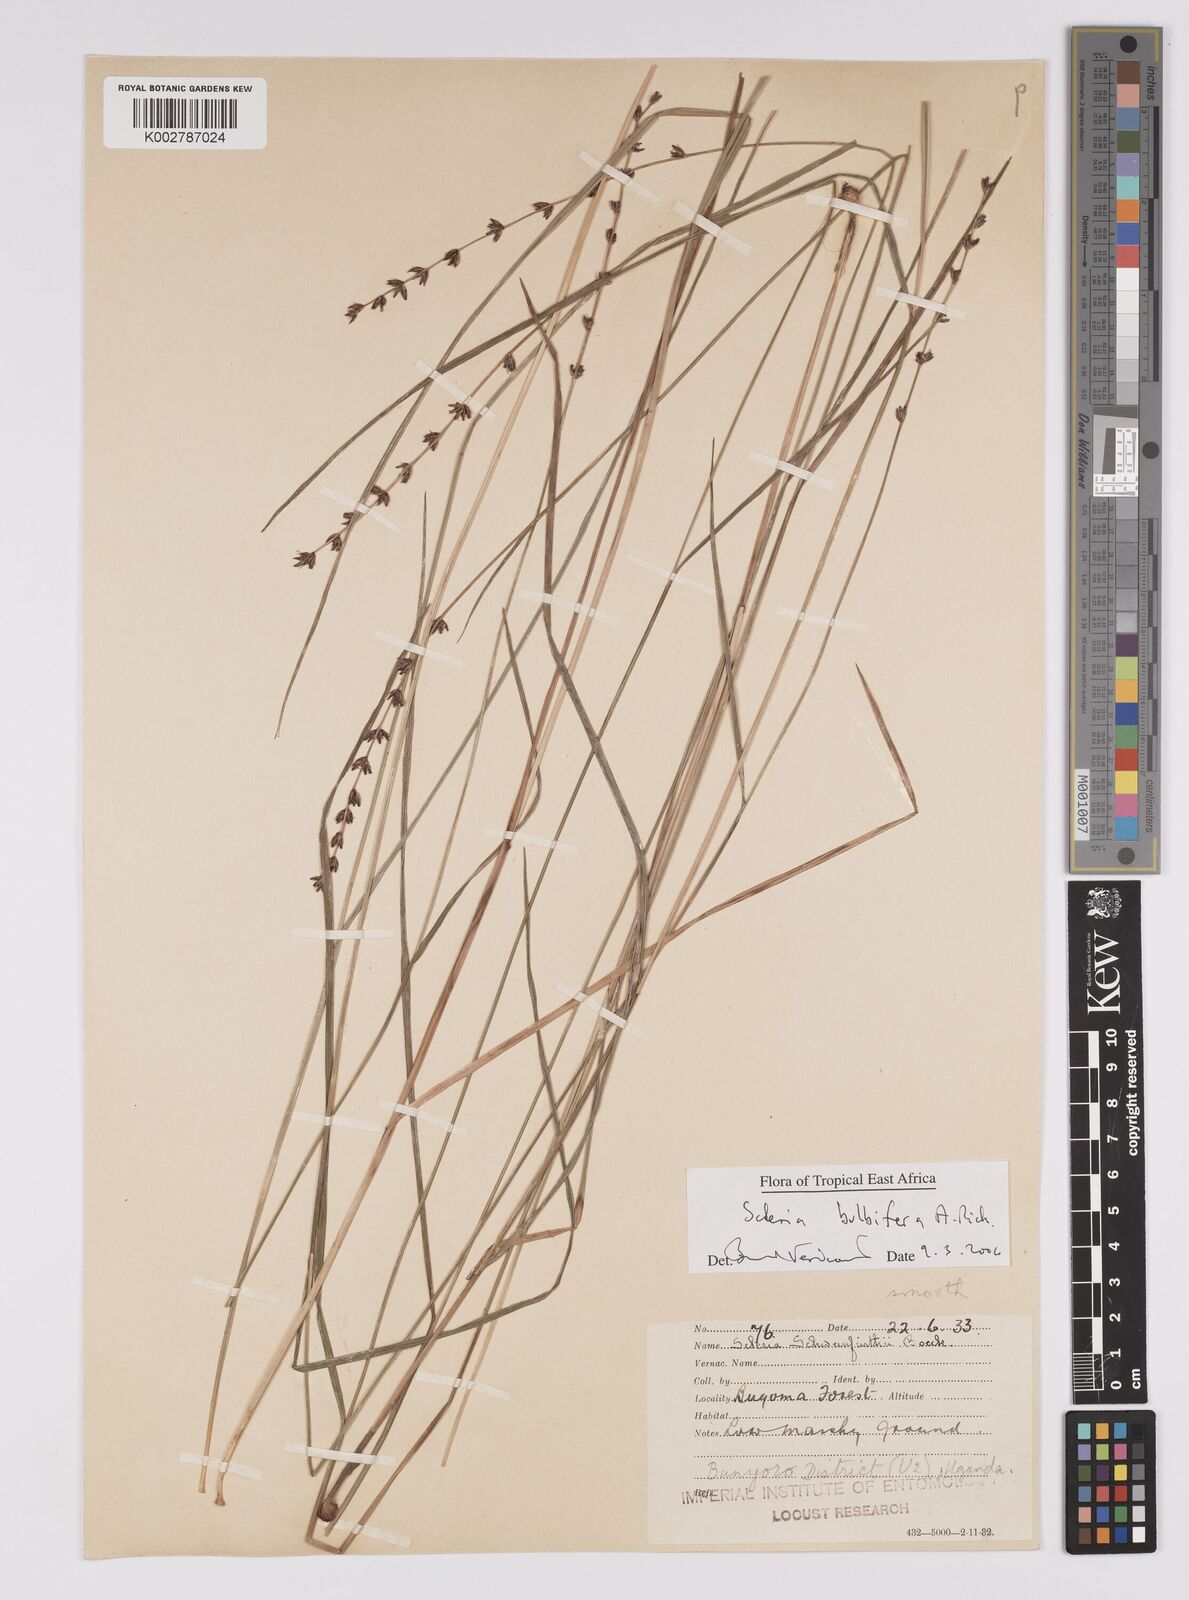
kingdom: Plantae
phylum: Tracheophyta
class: Liliopsida
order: Poales
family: Cyperaceae
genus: Scleria
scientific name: Scleria bulbifera
